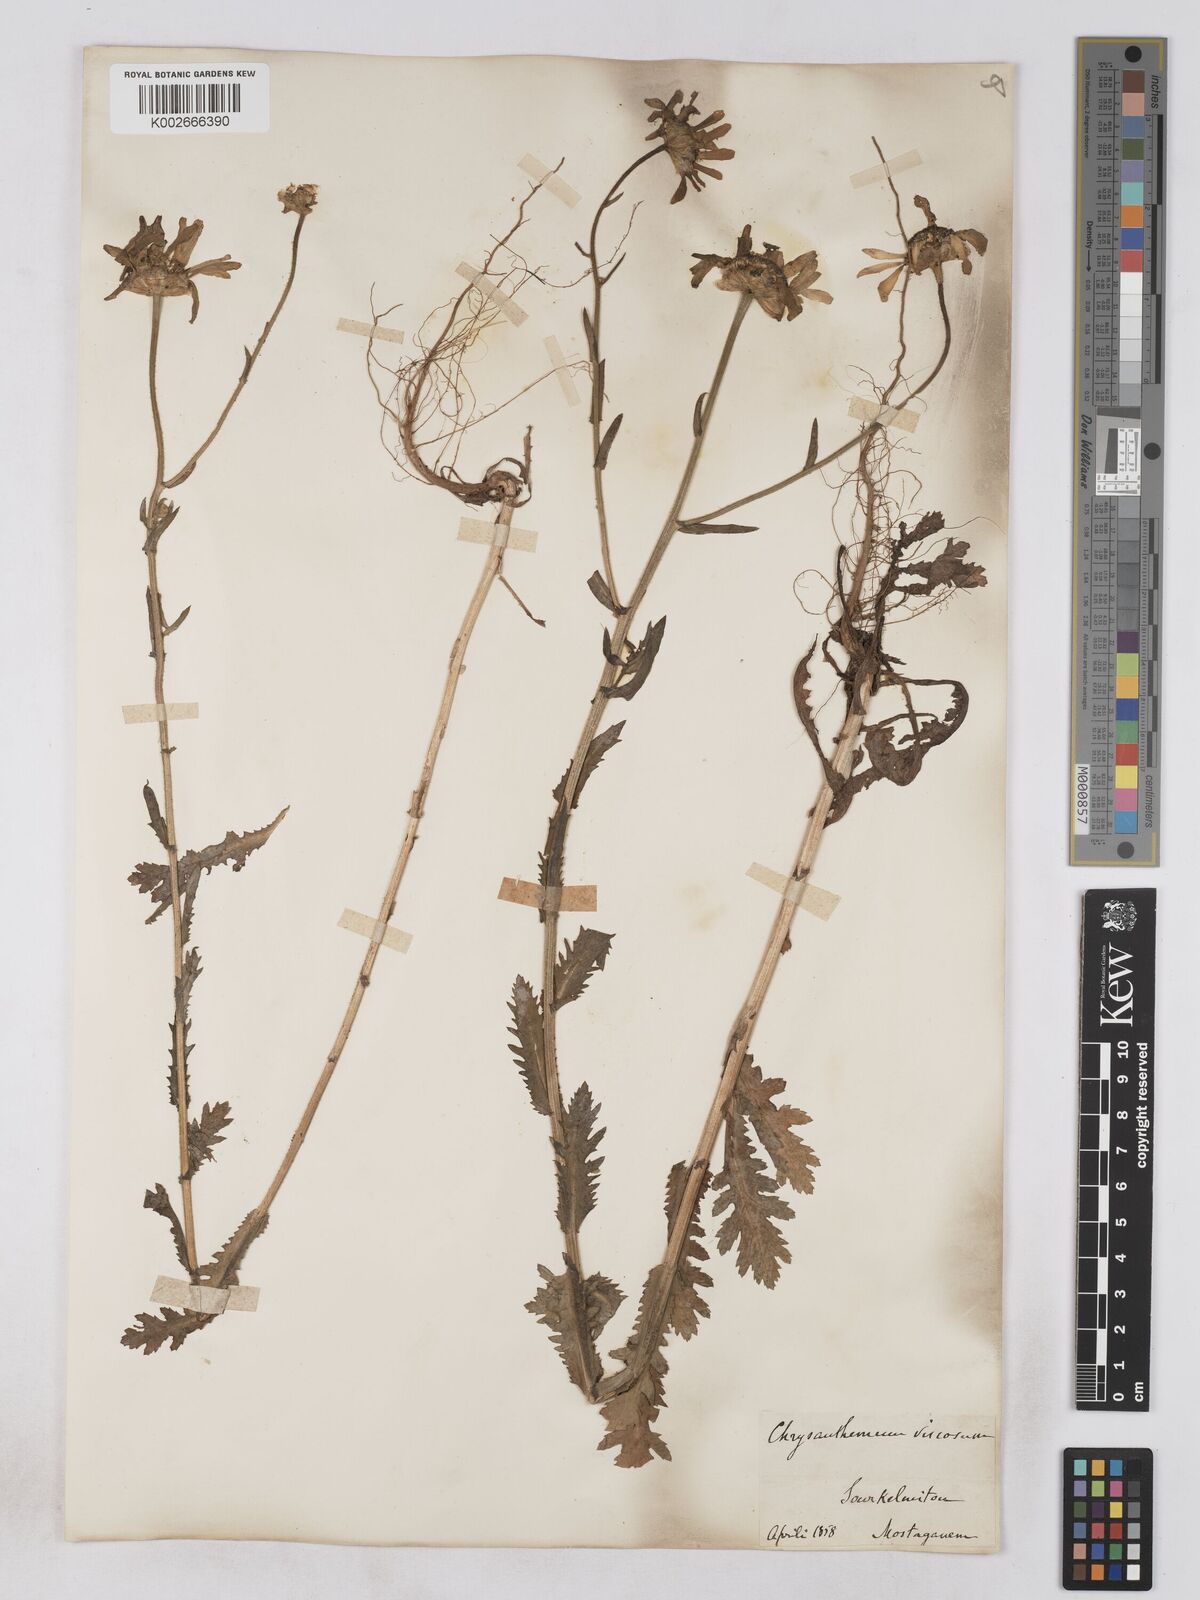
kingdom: Plantae
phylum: Tracheophyta
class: Magnoliopsida
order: Asterales
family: Asteraceae
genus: Heteranthemis
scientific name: Heteranthemis
